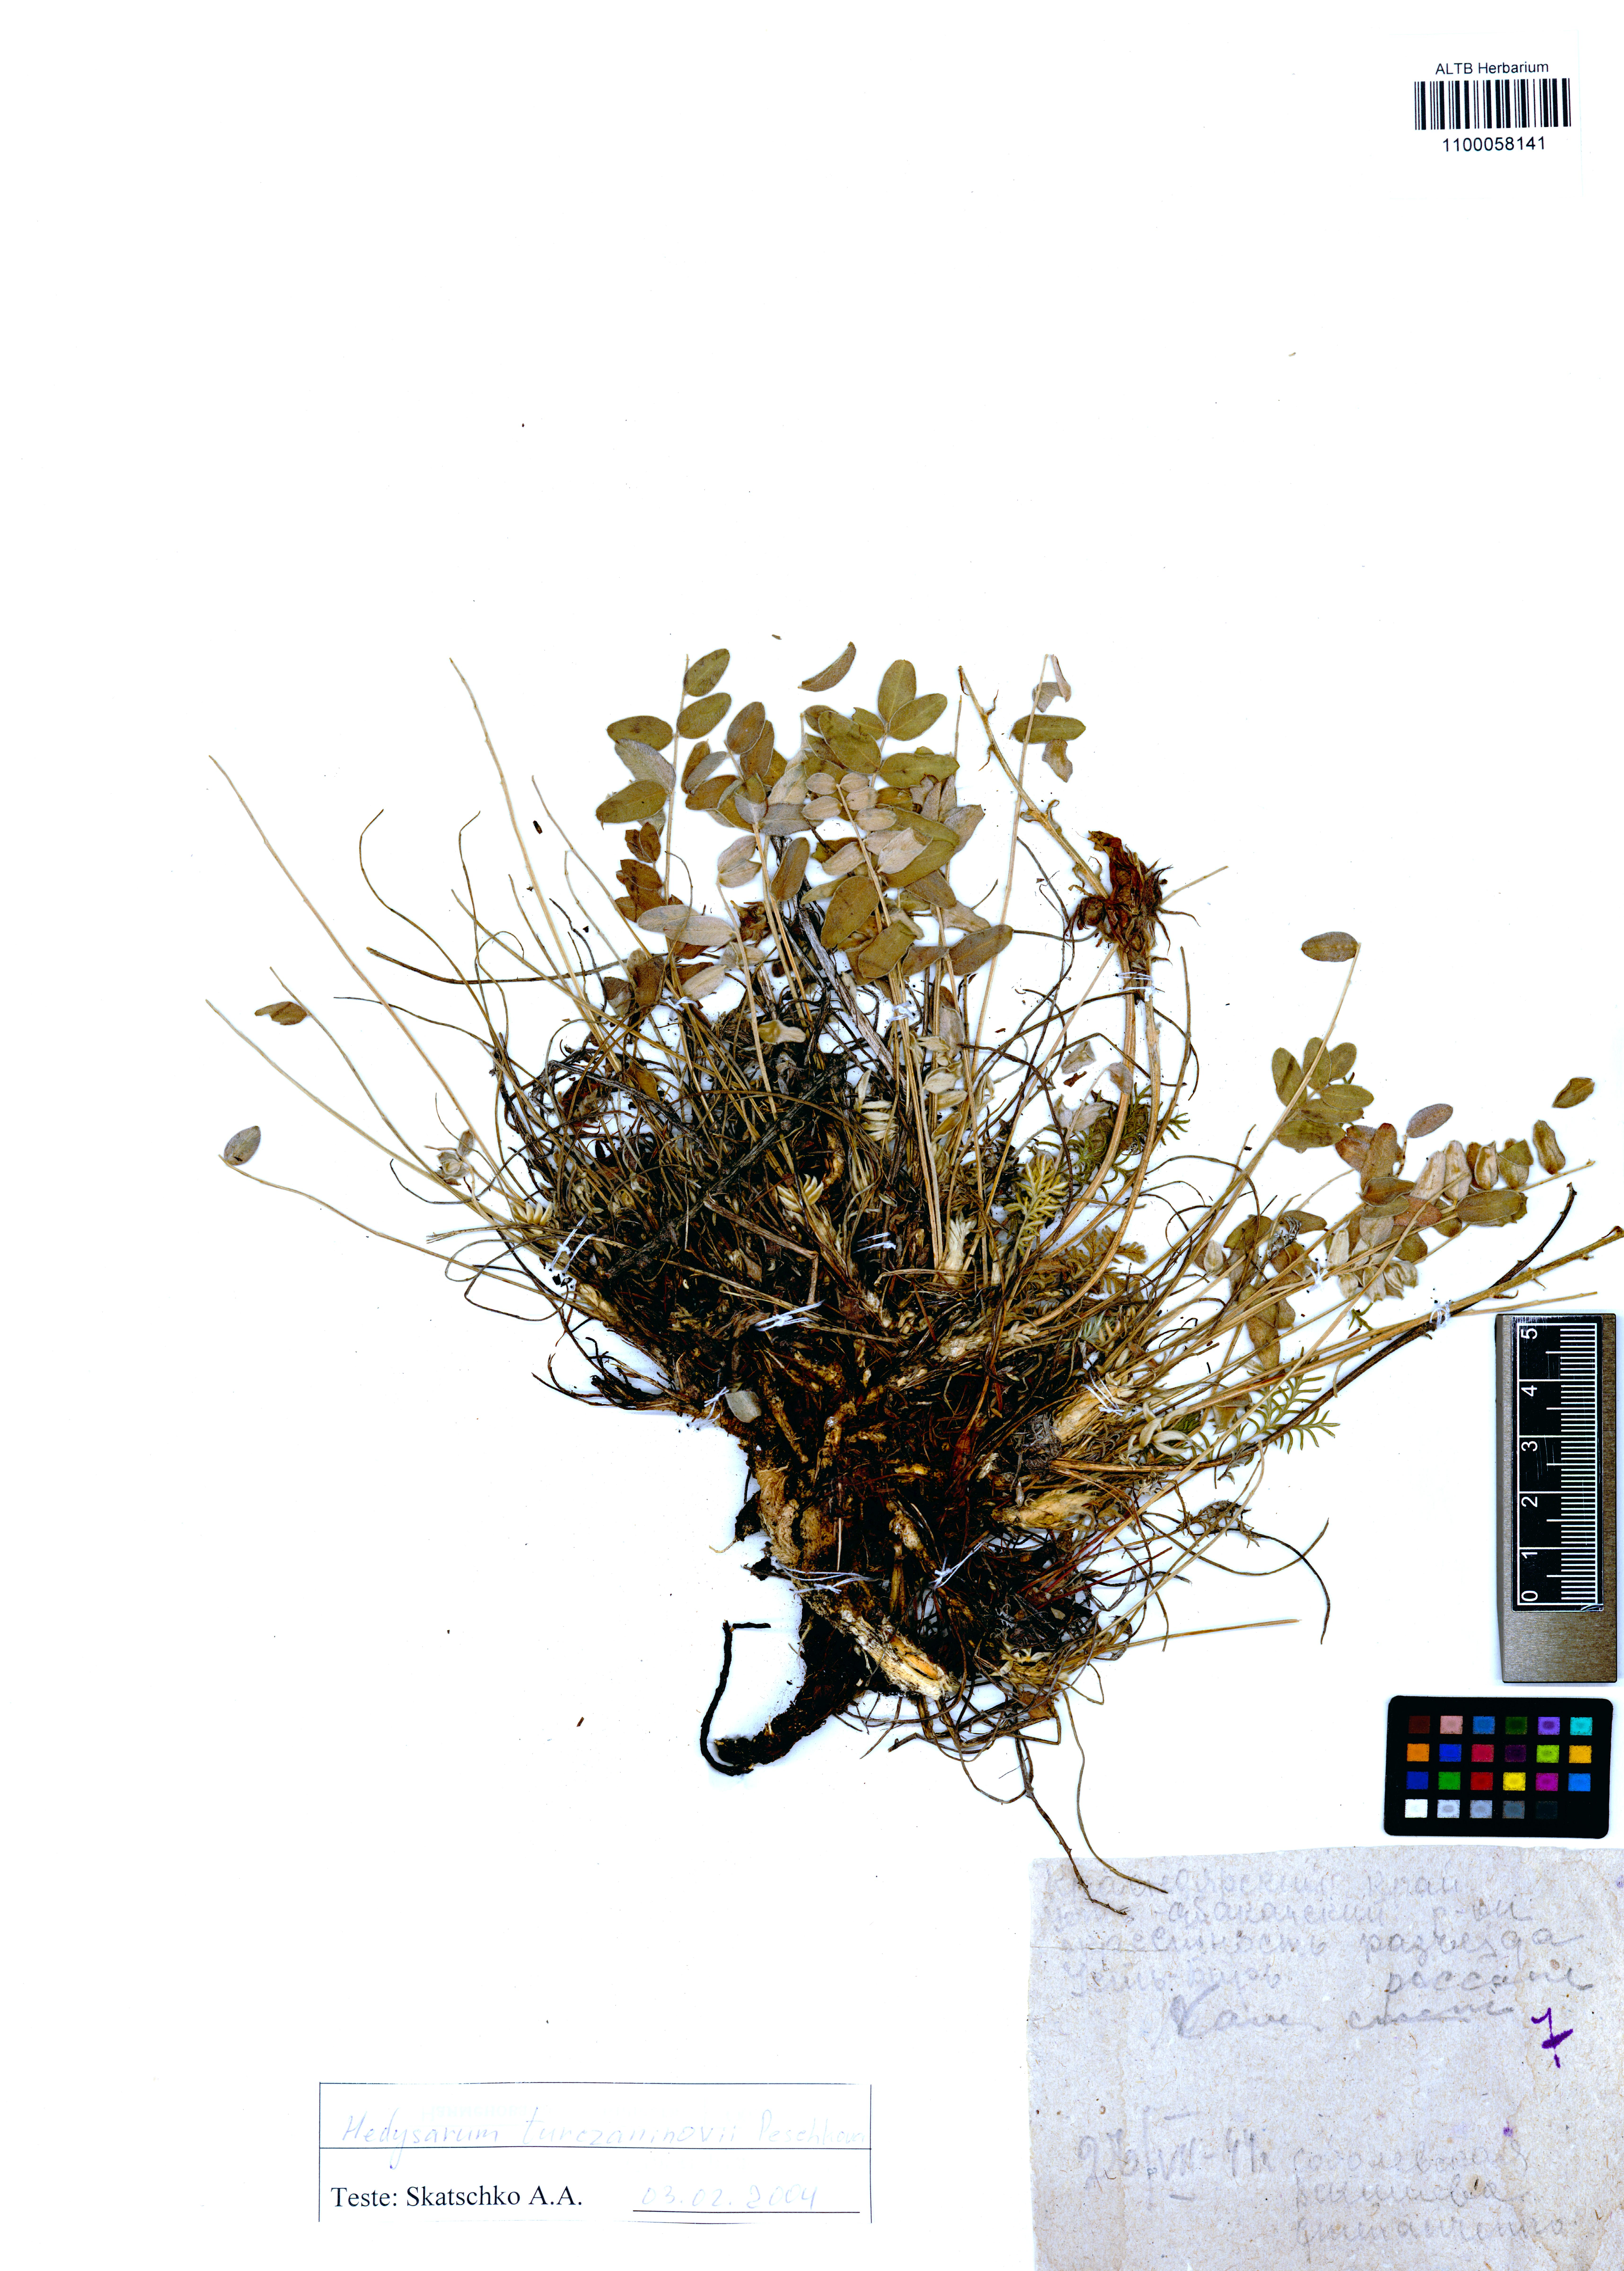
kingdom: Plantae
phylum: Tracheophyta
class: Magnoliopsida
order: Fabales
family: Fabaceae
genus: Hedysarum
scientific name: Hedysarum turczaninovii
